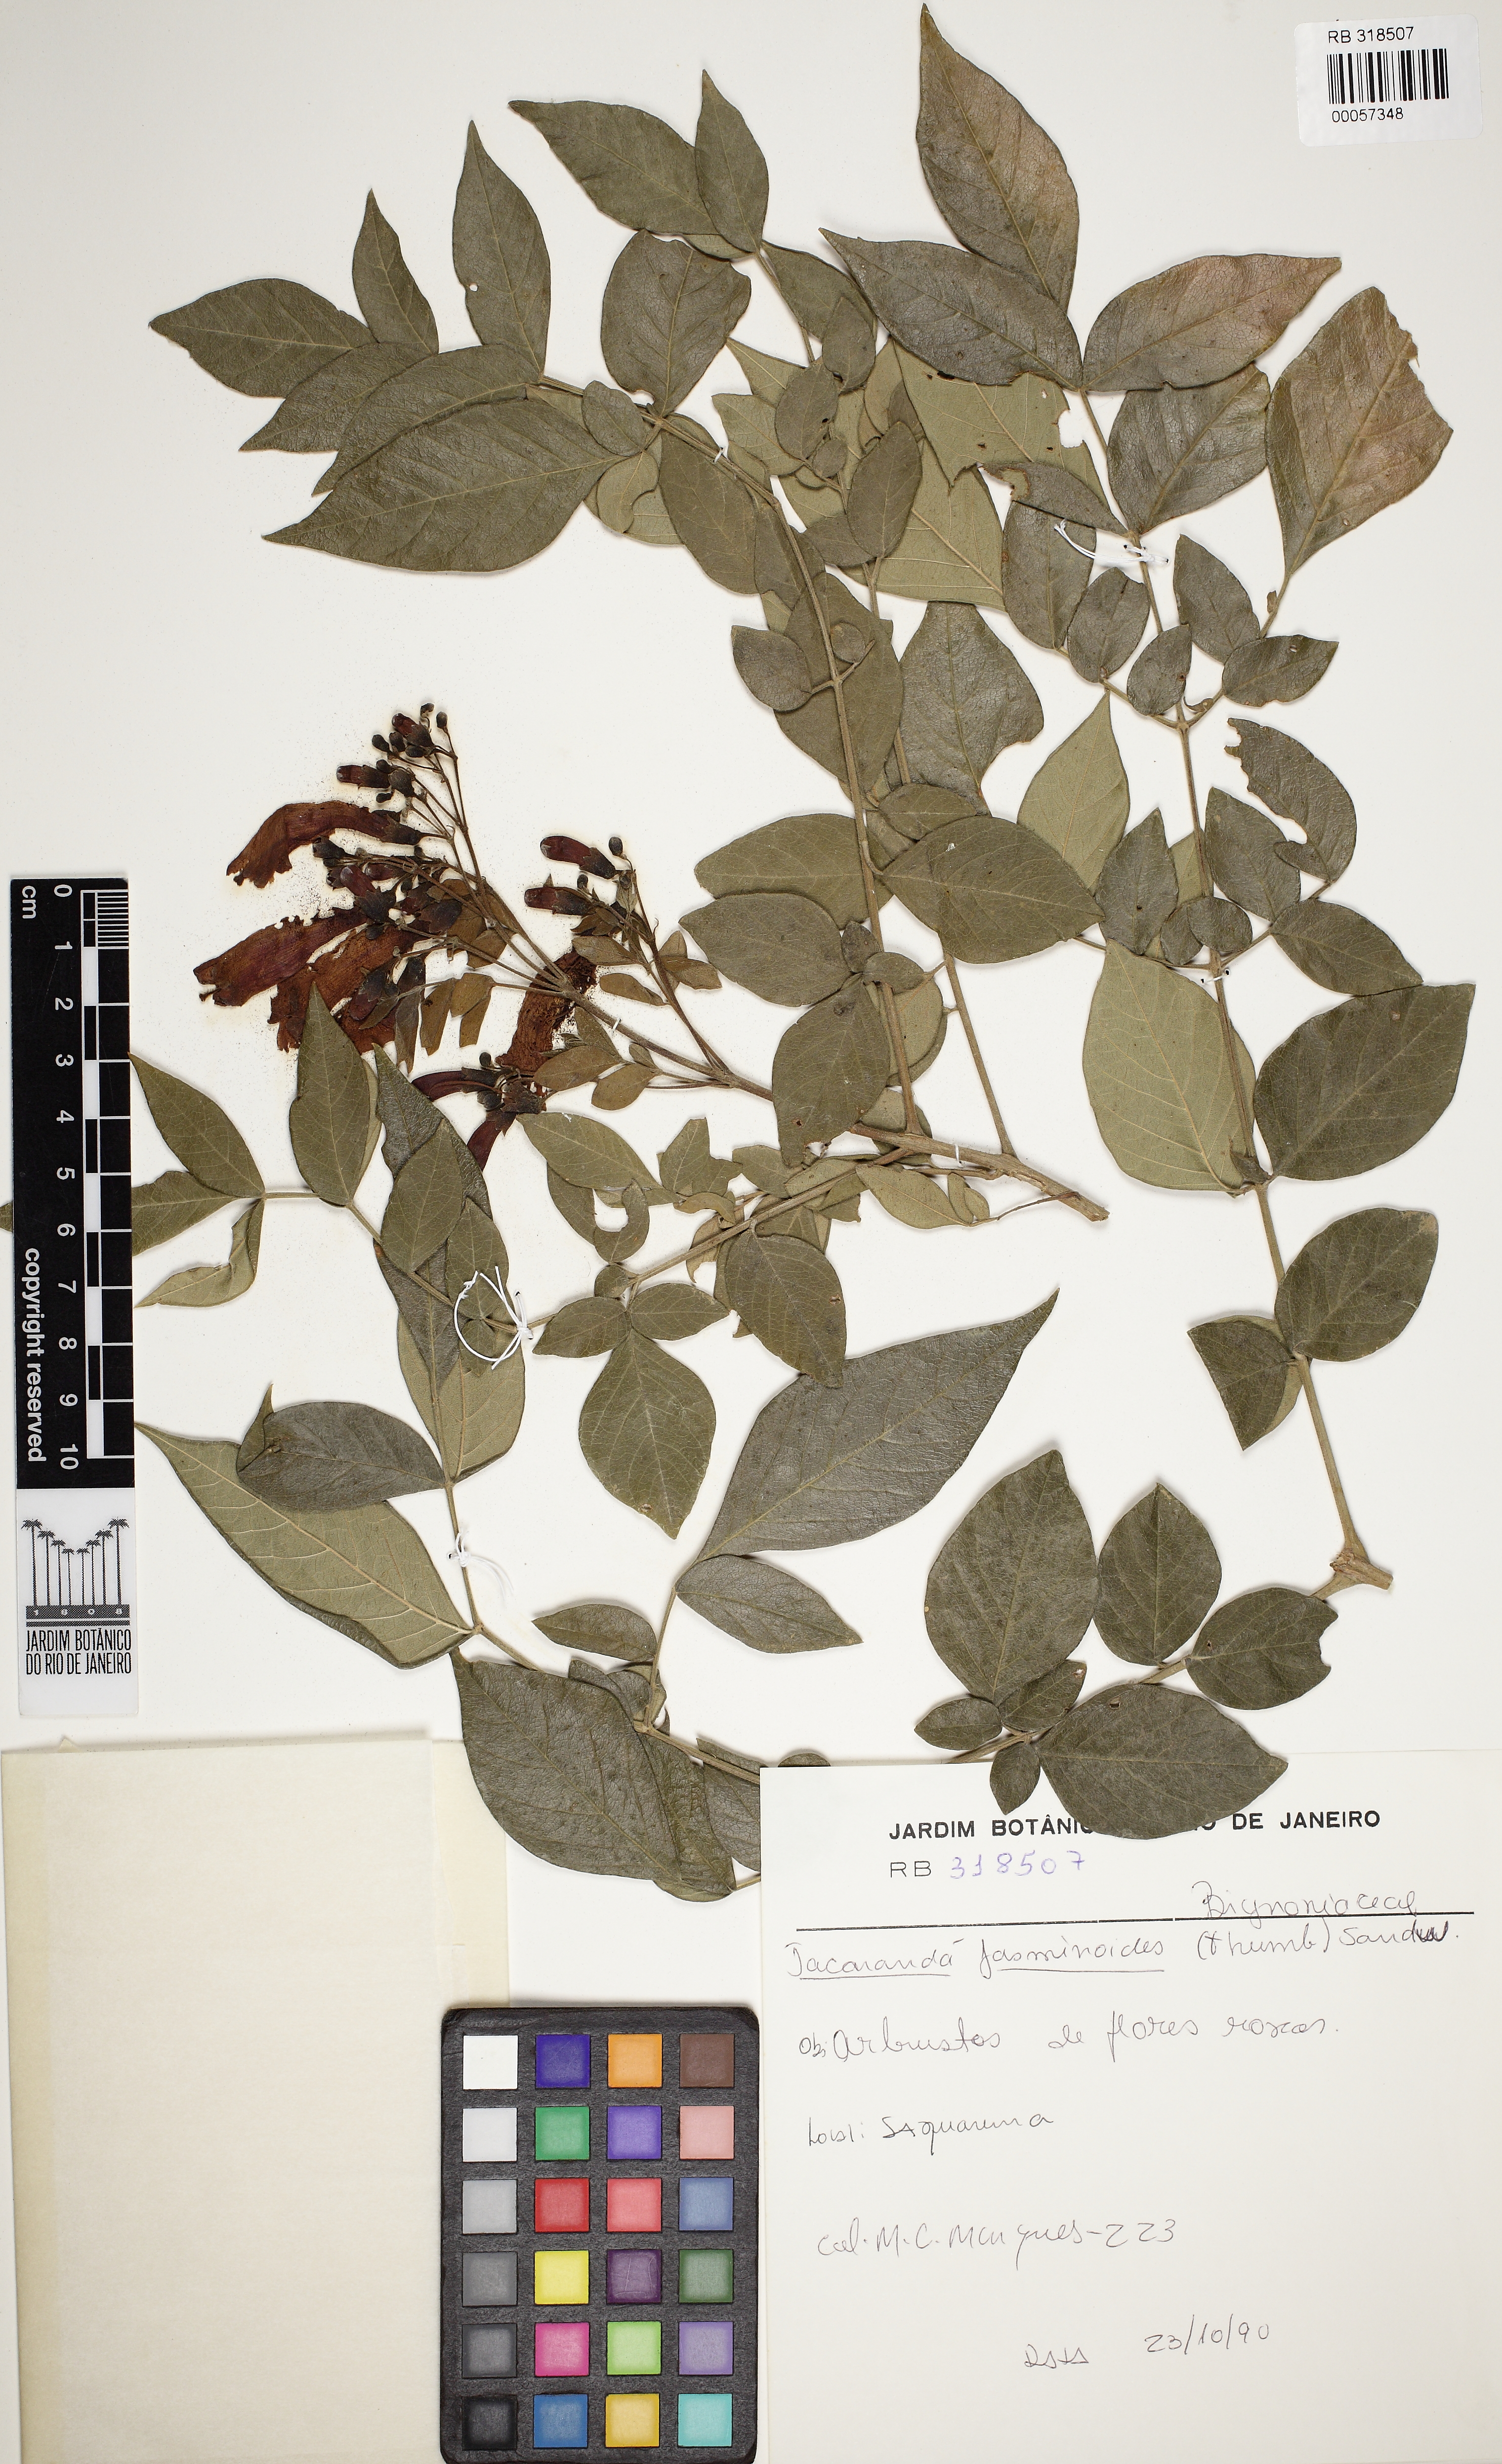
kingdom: Plantae
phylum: Tracheophyta
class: Magnoliopsida
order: Lamiales
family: Bignoniaceae
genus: Jacaranda
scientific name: Jacaranda jasminoides
